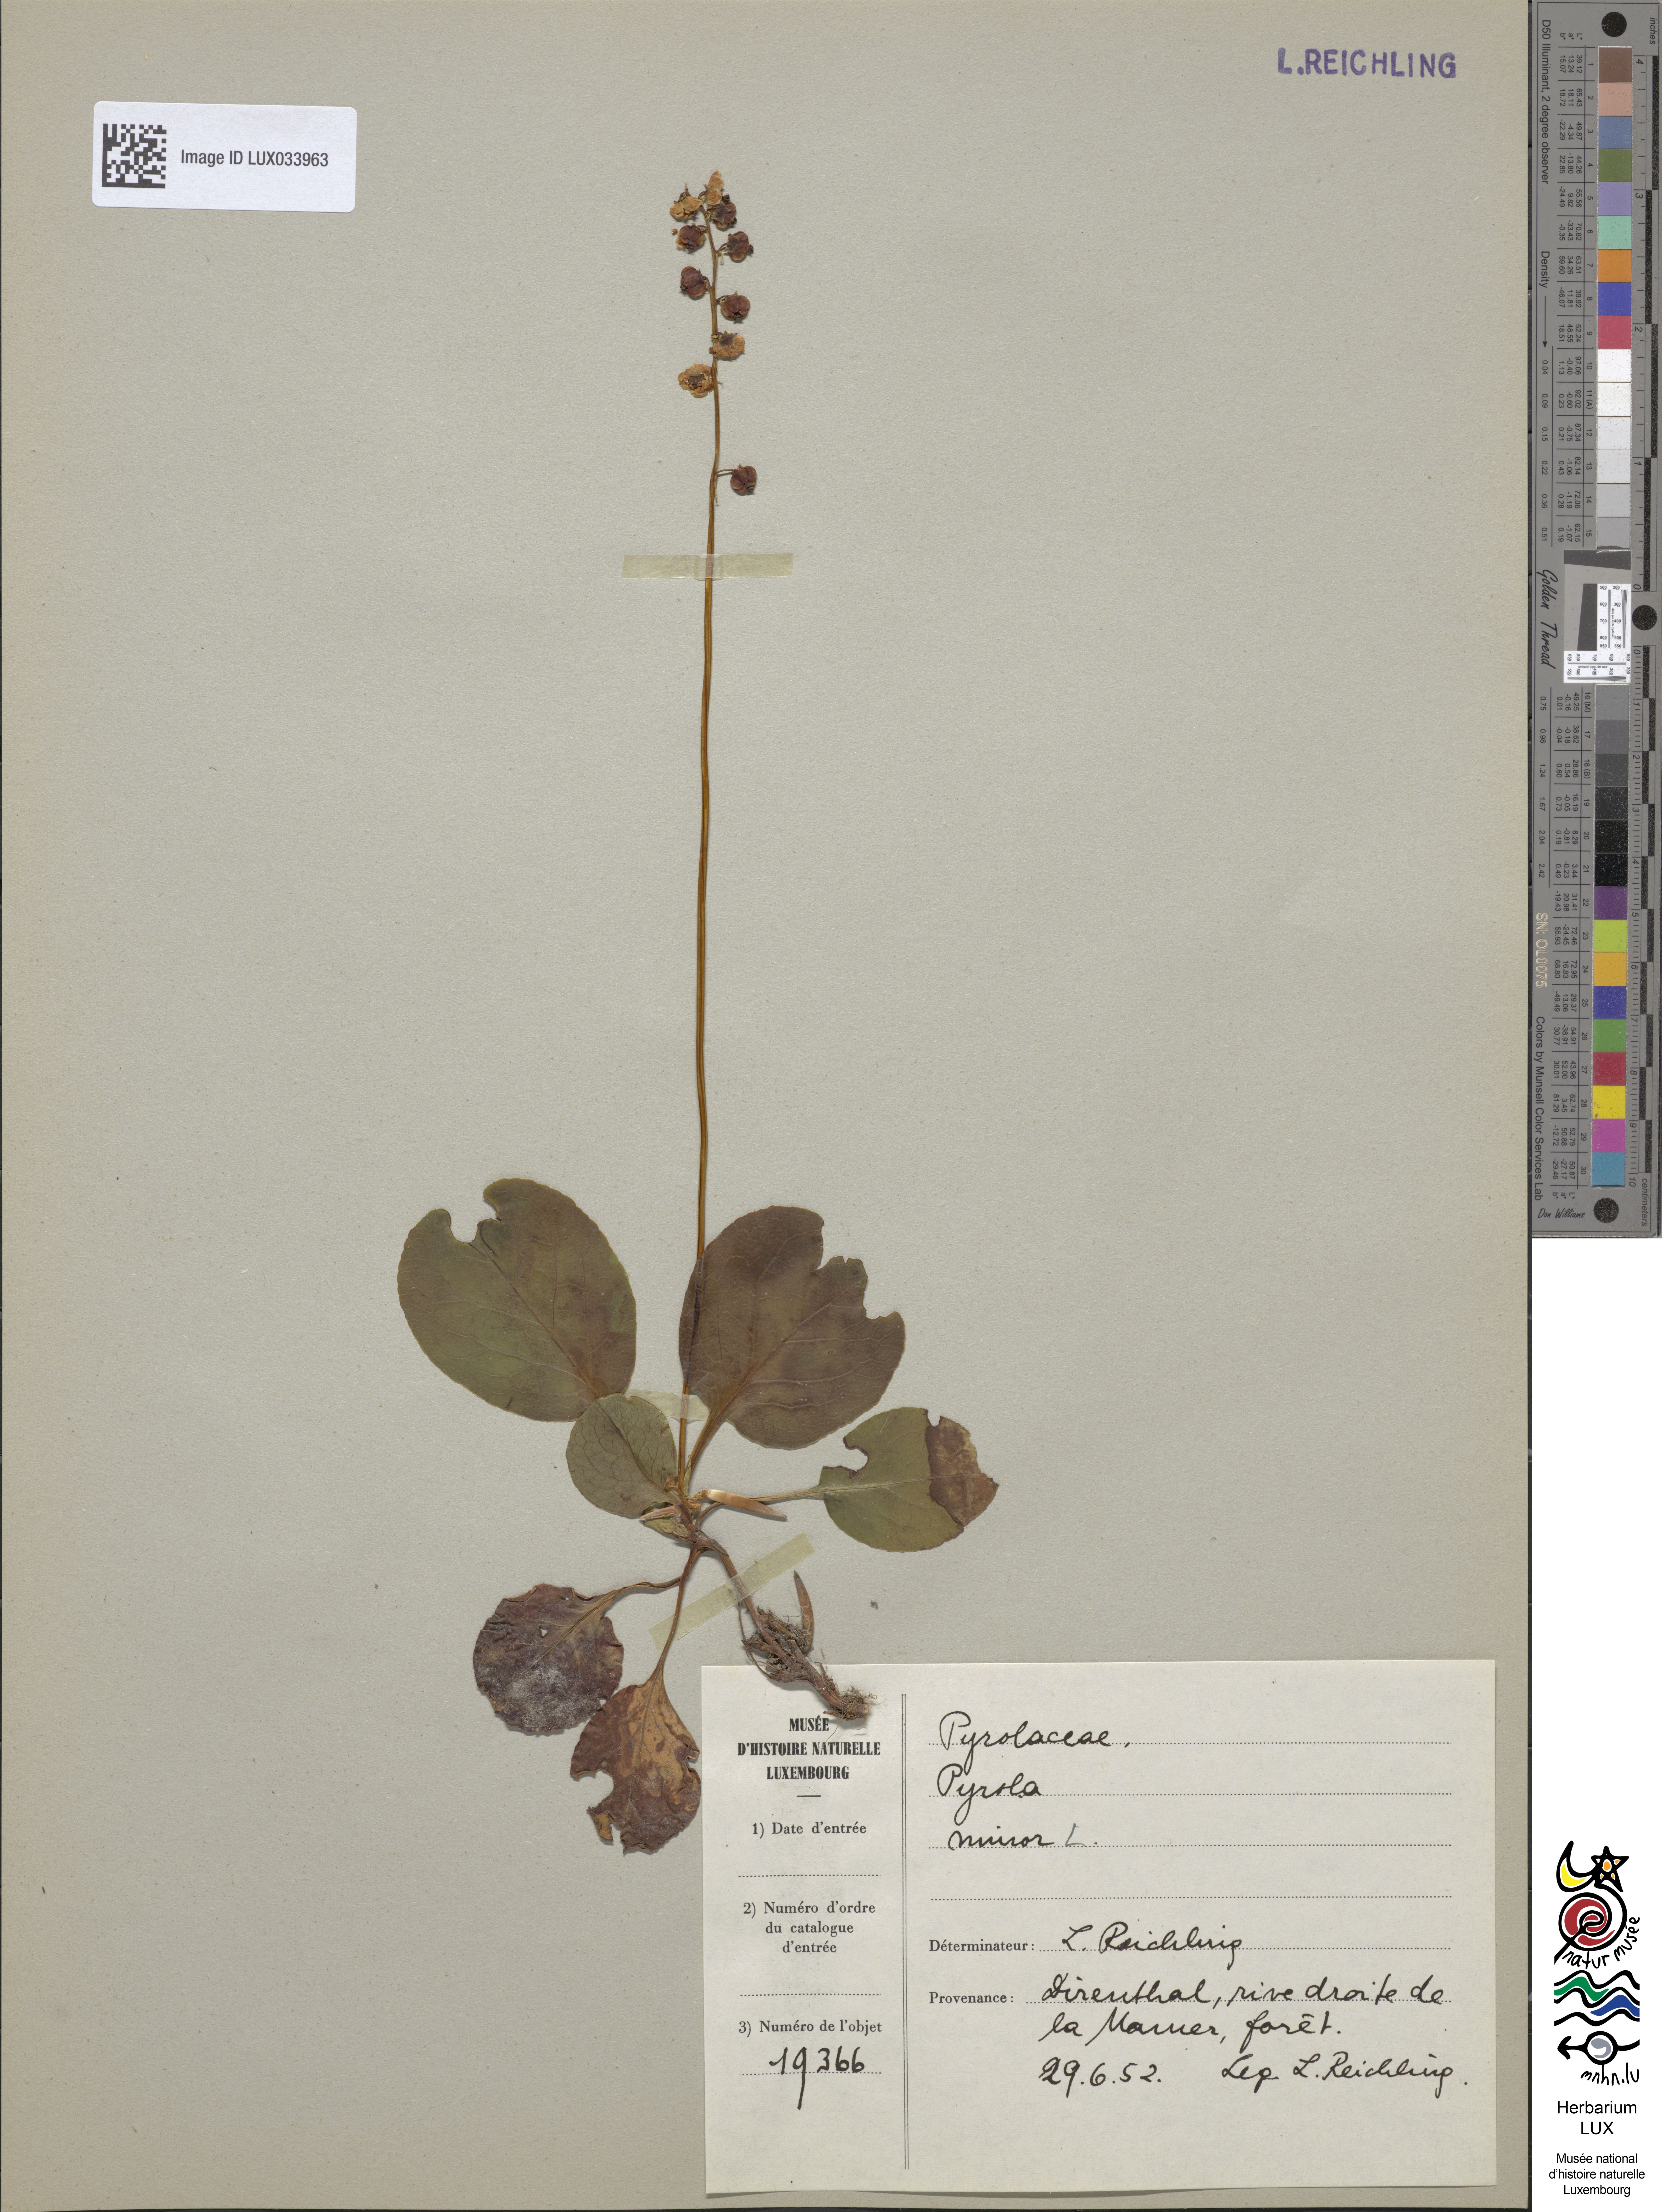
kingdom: Plantae
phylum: Tracheophyta
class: Magnoliopsida
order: Ericales
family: Ericaceae
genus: Pyrola
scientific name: Pyrola minor
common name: Common wintergreen
